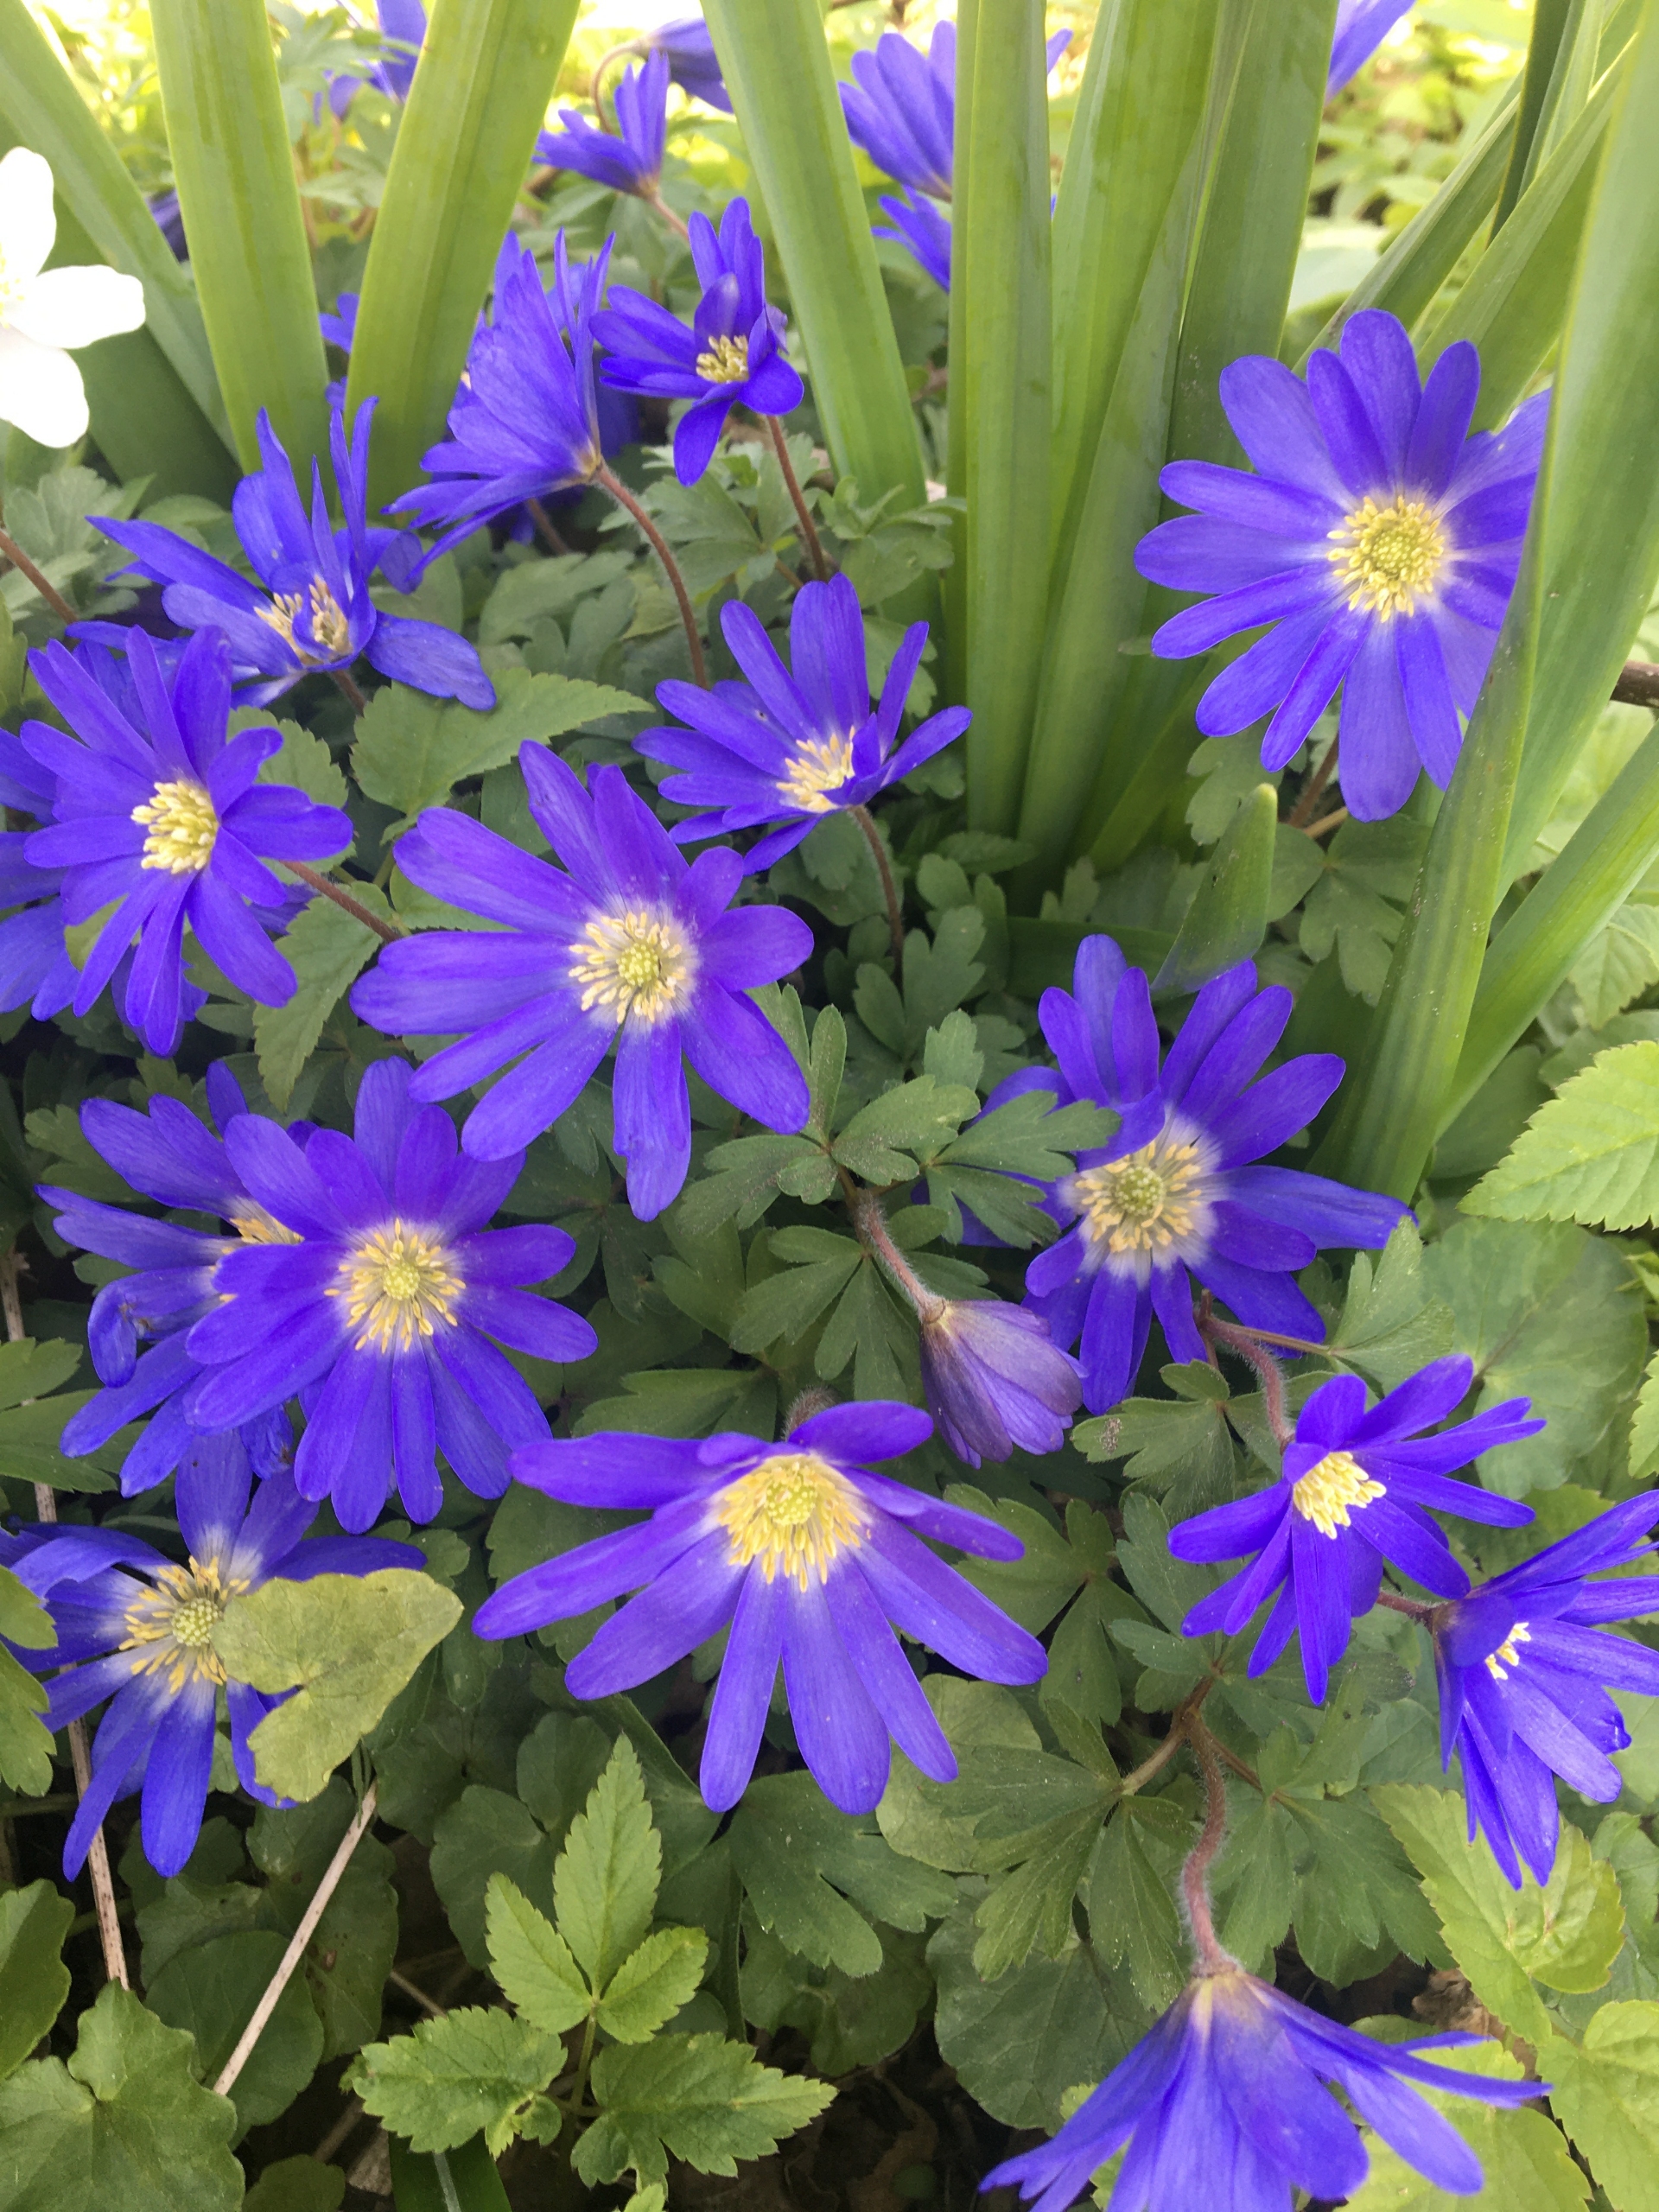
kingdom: Plantae
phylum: Tracheophyta
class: Magnoliopsida
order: Ranunculales
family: Ranunculaceae
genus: Anemone
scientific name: Anemone blanda
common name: Balkan-anemone
